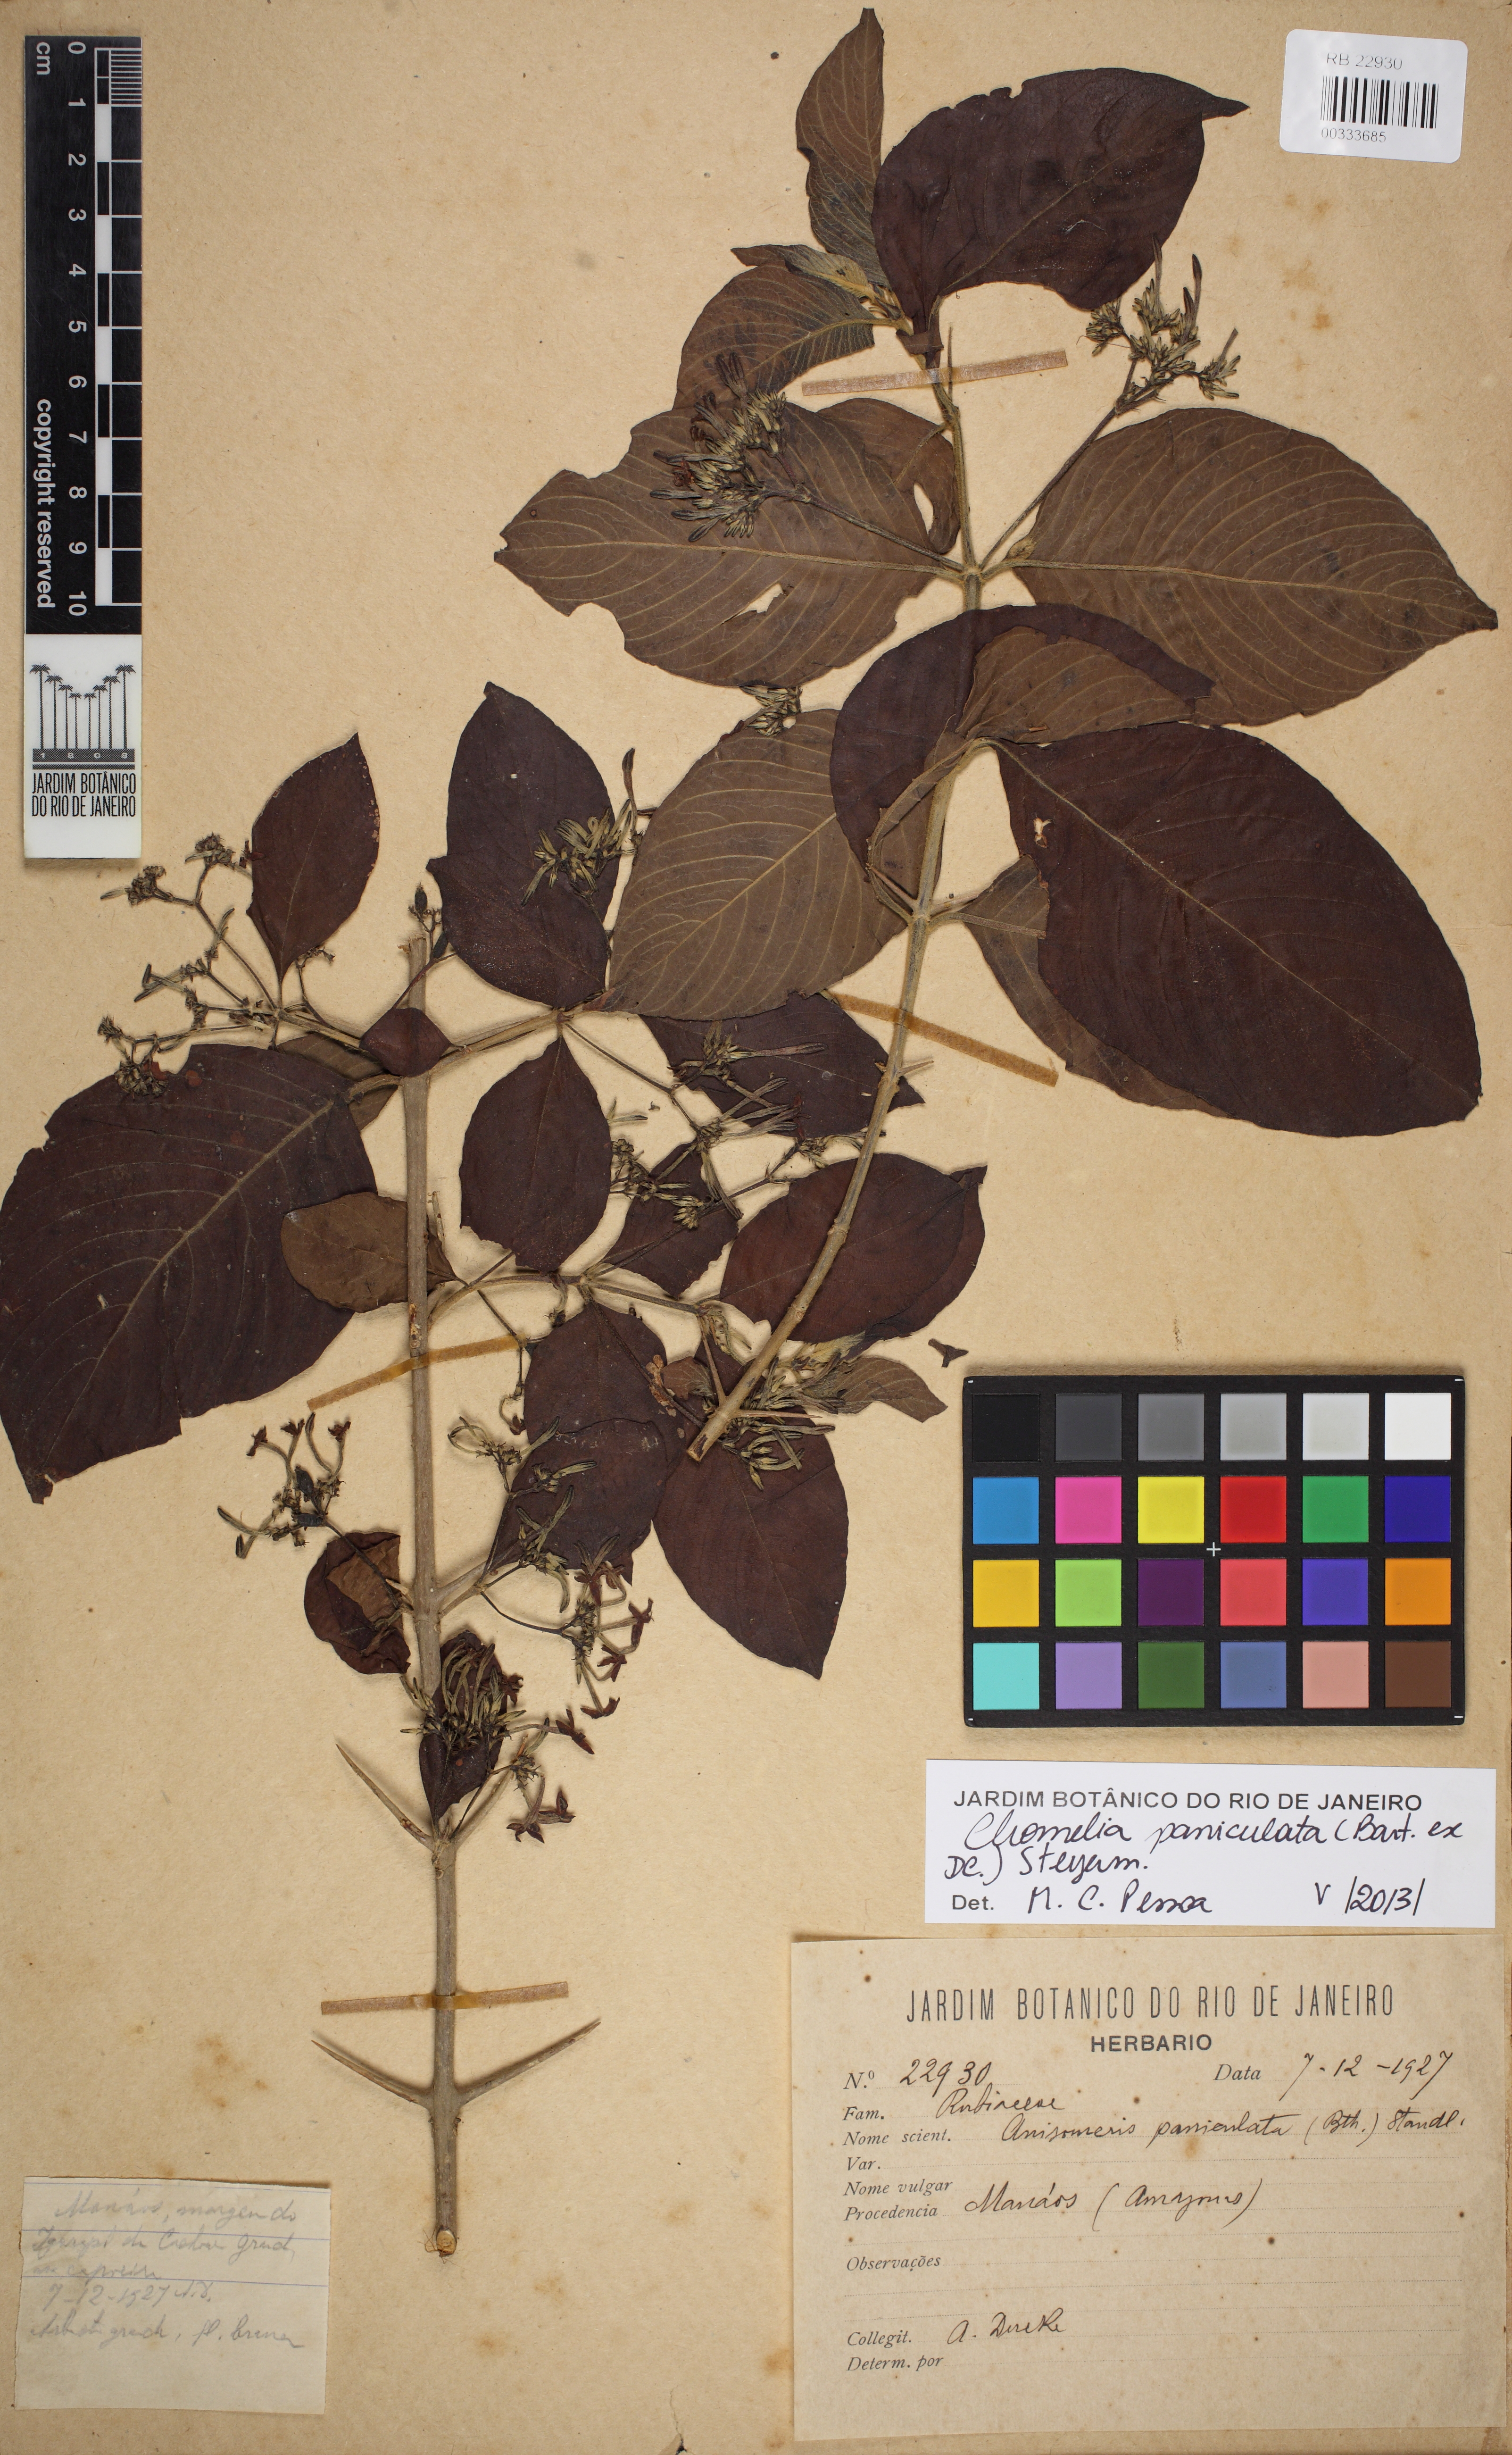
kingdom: Plantae
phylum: Tracheophyta
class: Magnoliopsida
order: Gentianales
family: Rubiaceae
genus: Chomelia
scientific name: Chomelia paniculata
